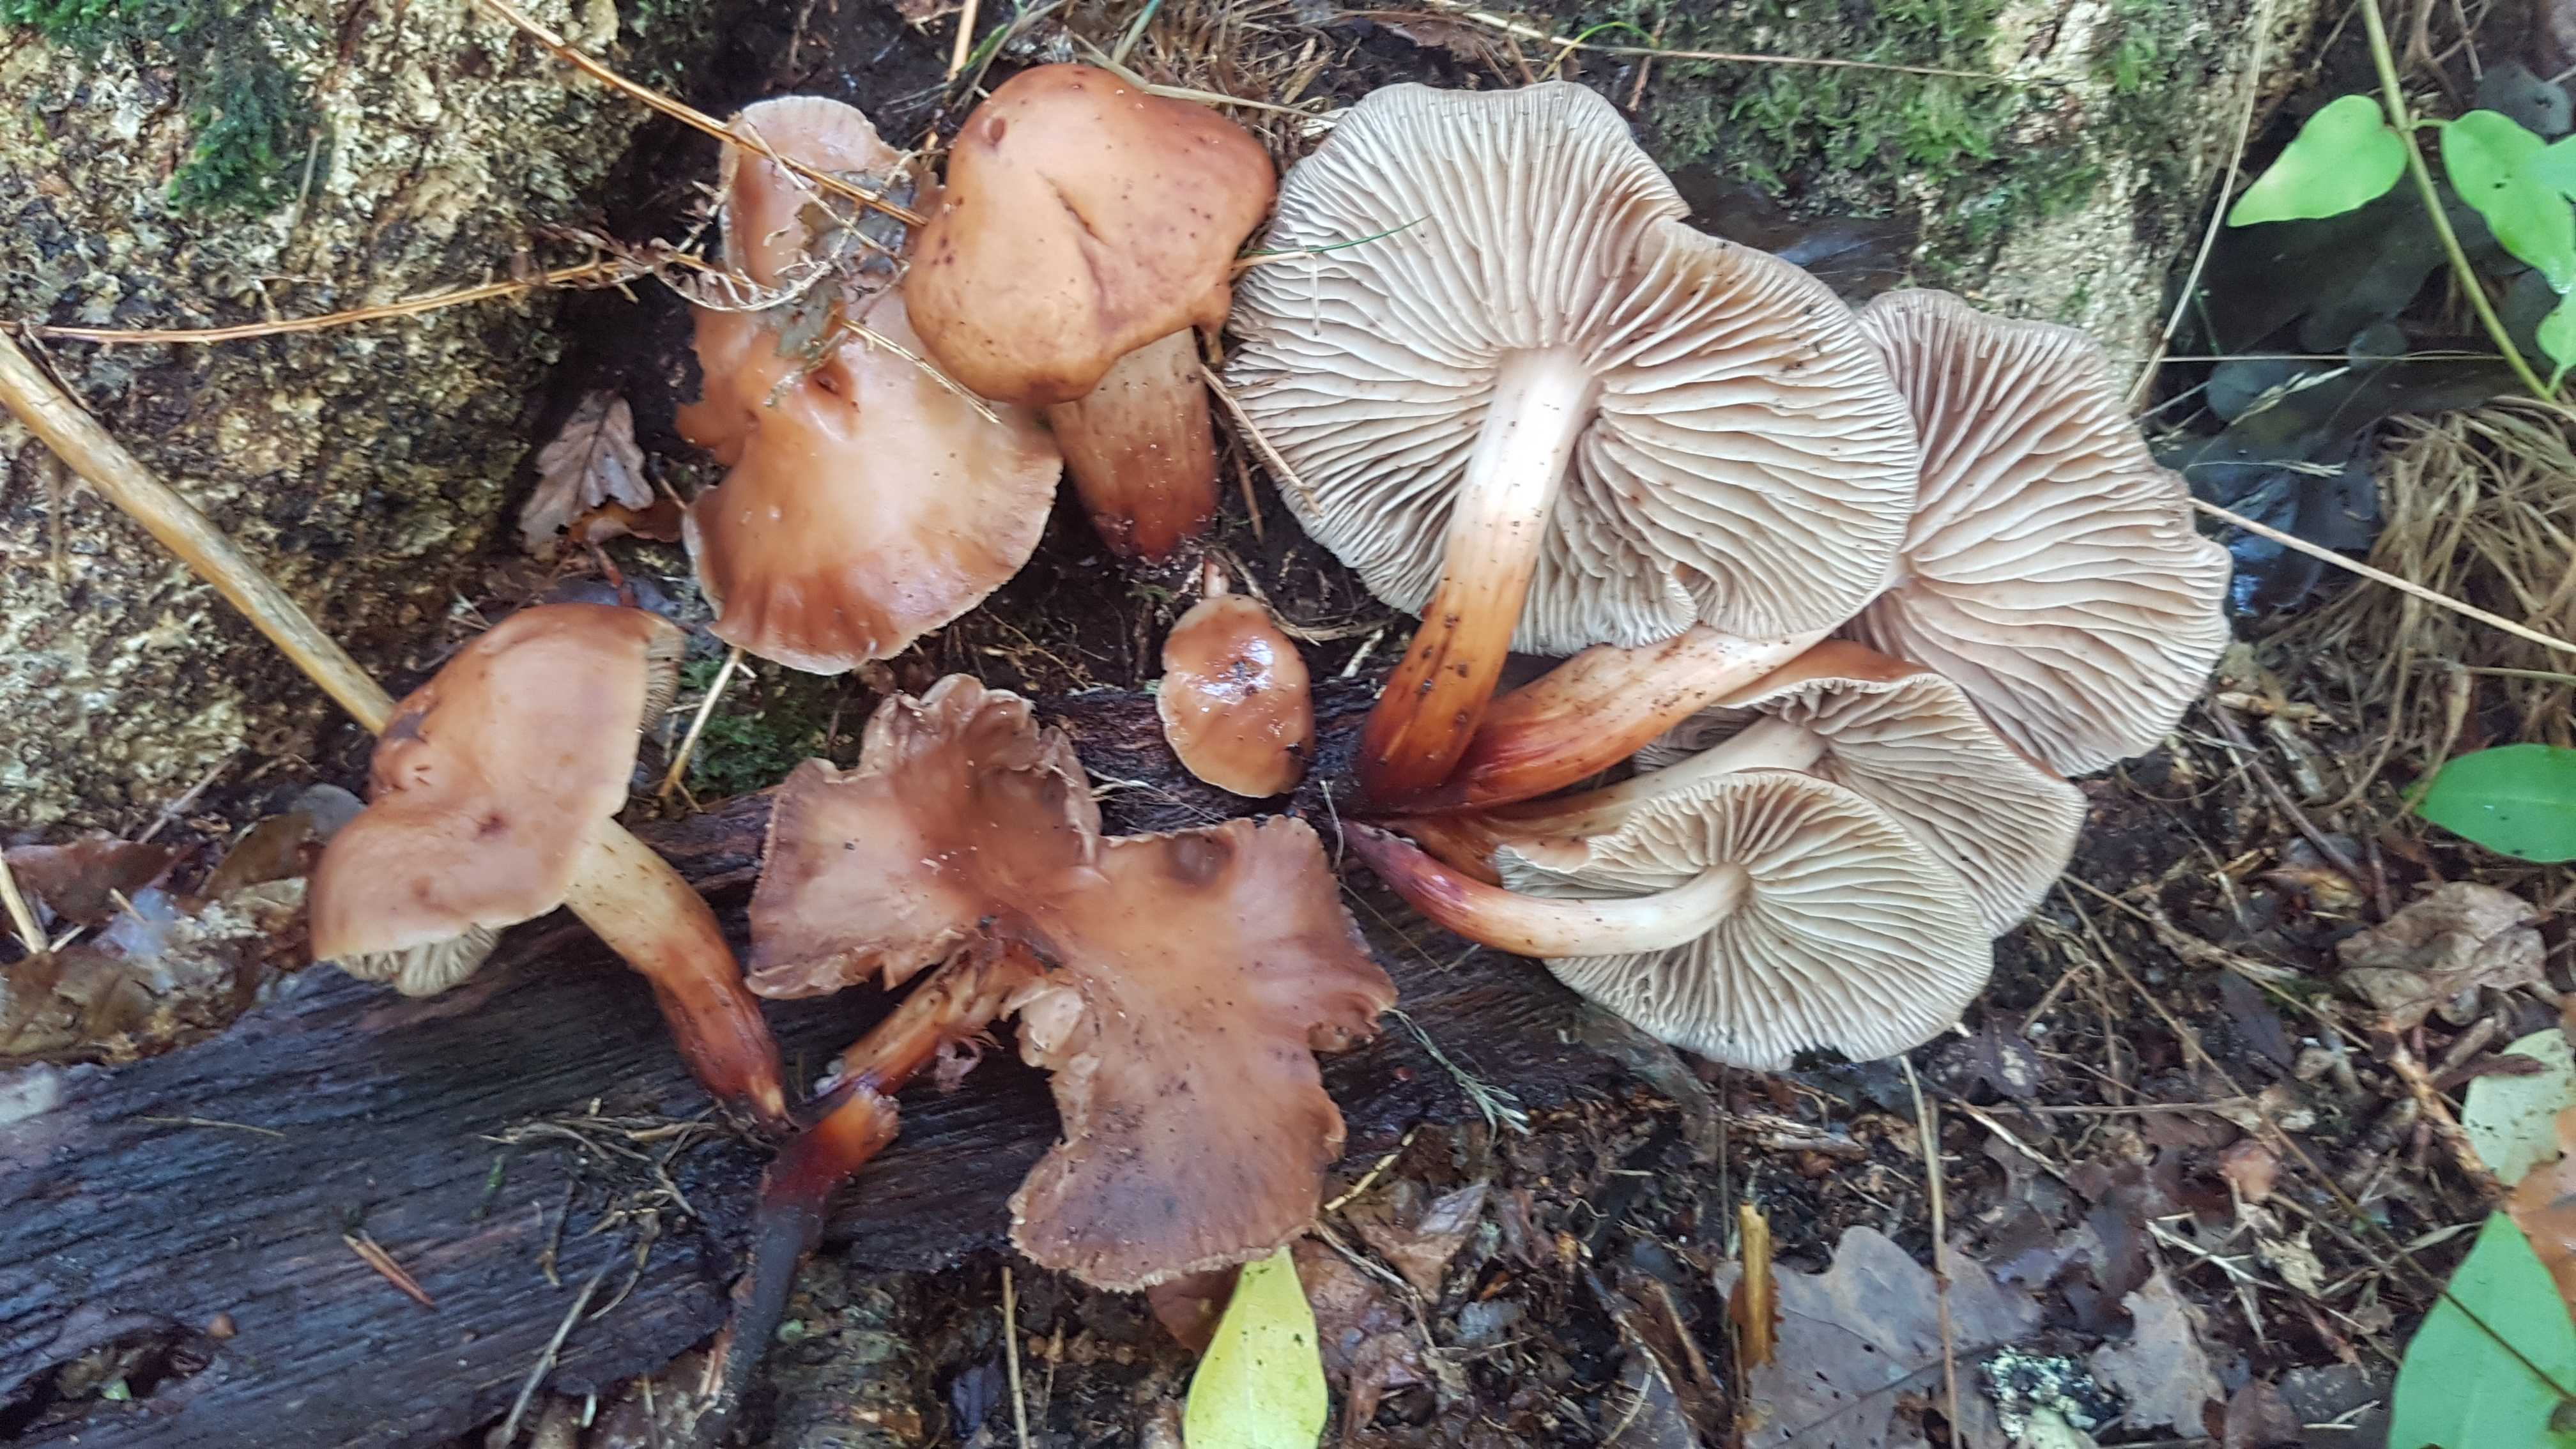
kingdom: Fungi
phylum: Basidiomycota
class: Agaricomycetes
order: Agaricales
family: Omphalotaceae
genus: Gymnopus
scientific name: Gymnopus fusipes
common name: tenstokket fladhat
